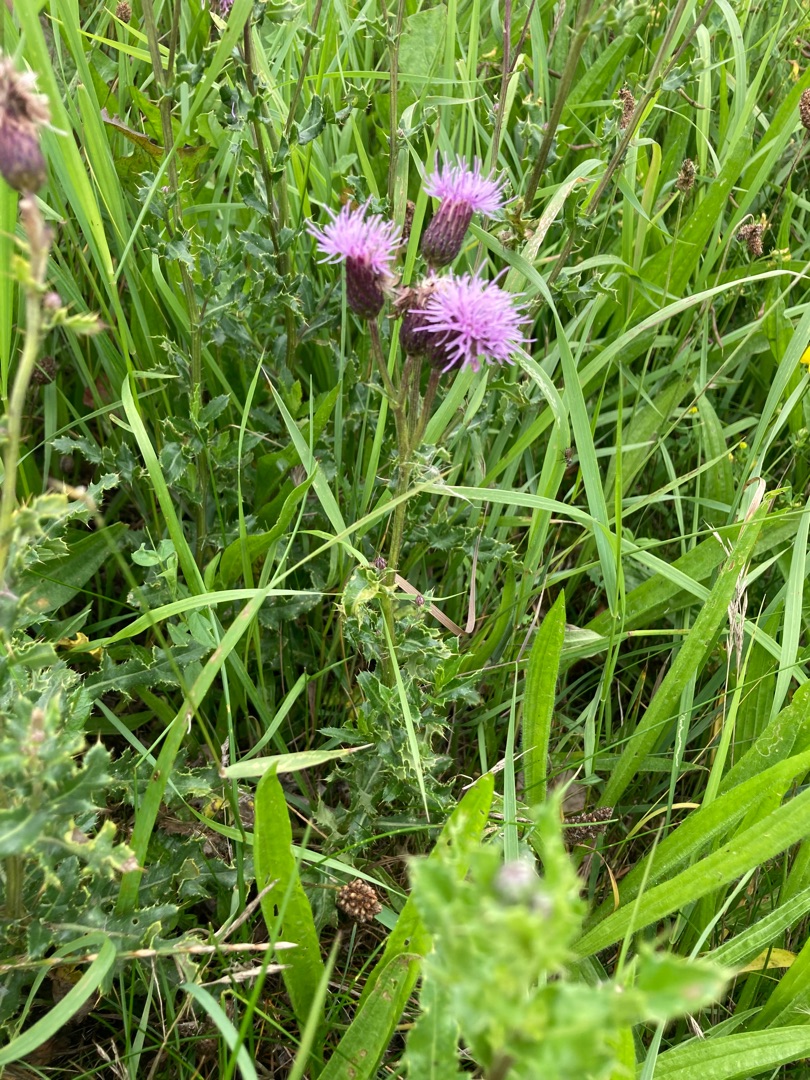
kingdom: Plantae
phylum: Tracheophyta
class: Magnoliopsida
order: Asterales
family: Asteraceae
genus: Cirsium
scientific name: Cirsium arvense
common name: Ager-tidsel
